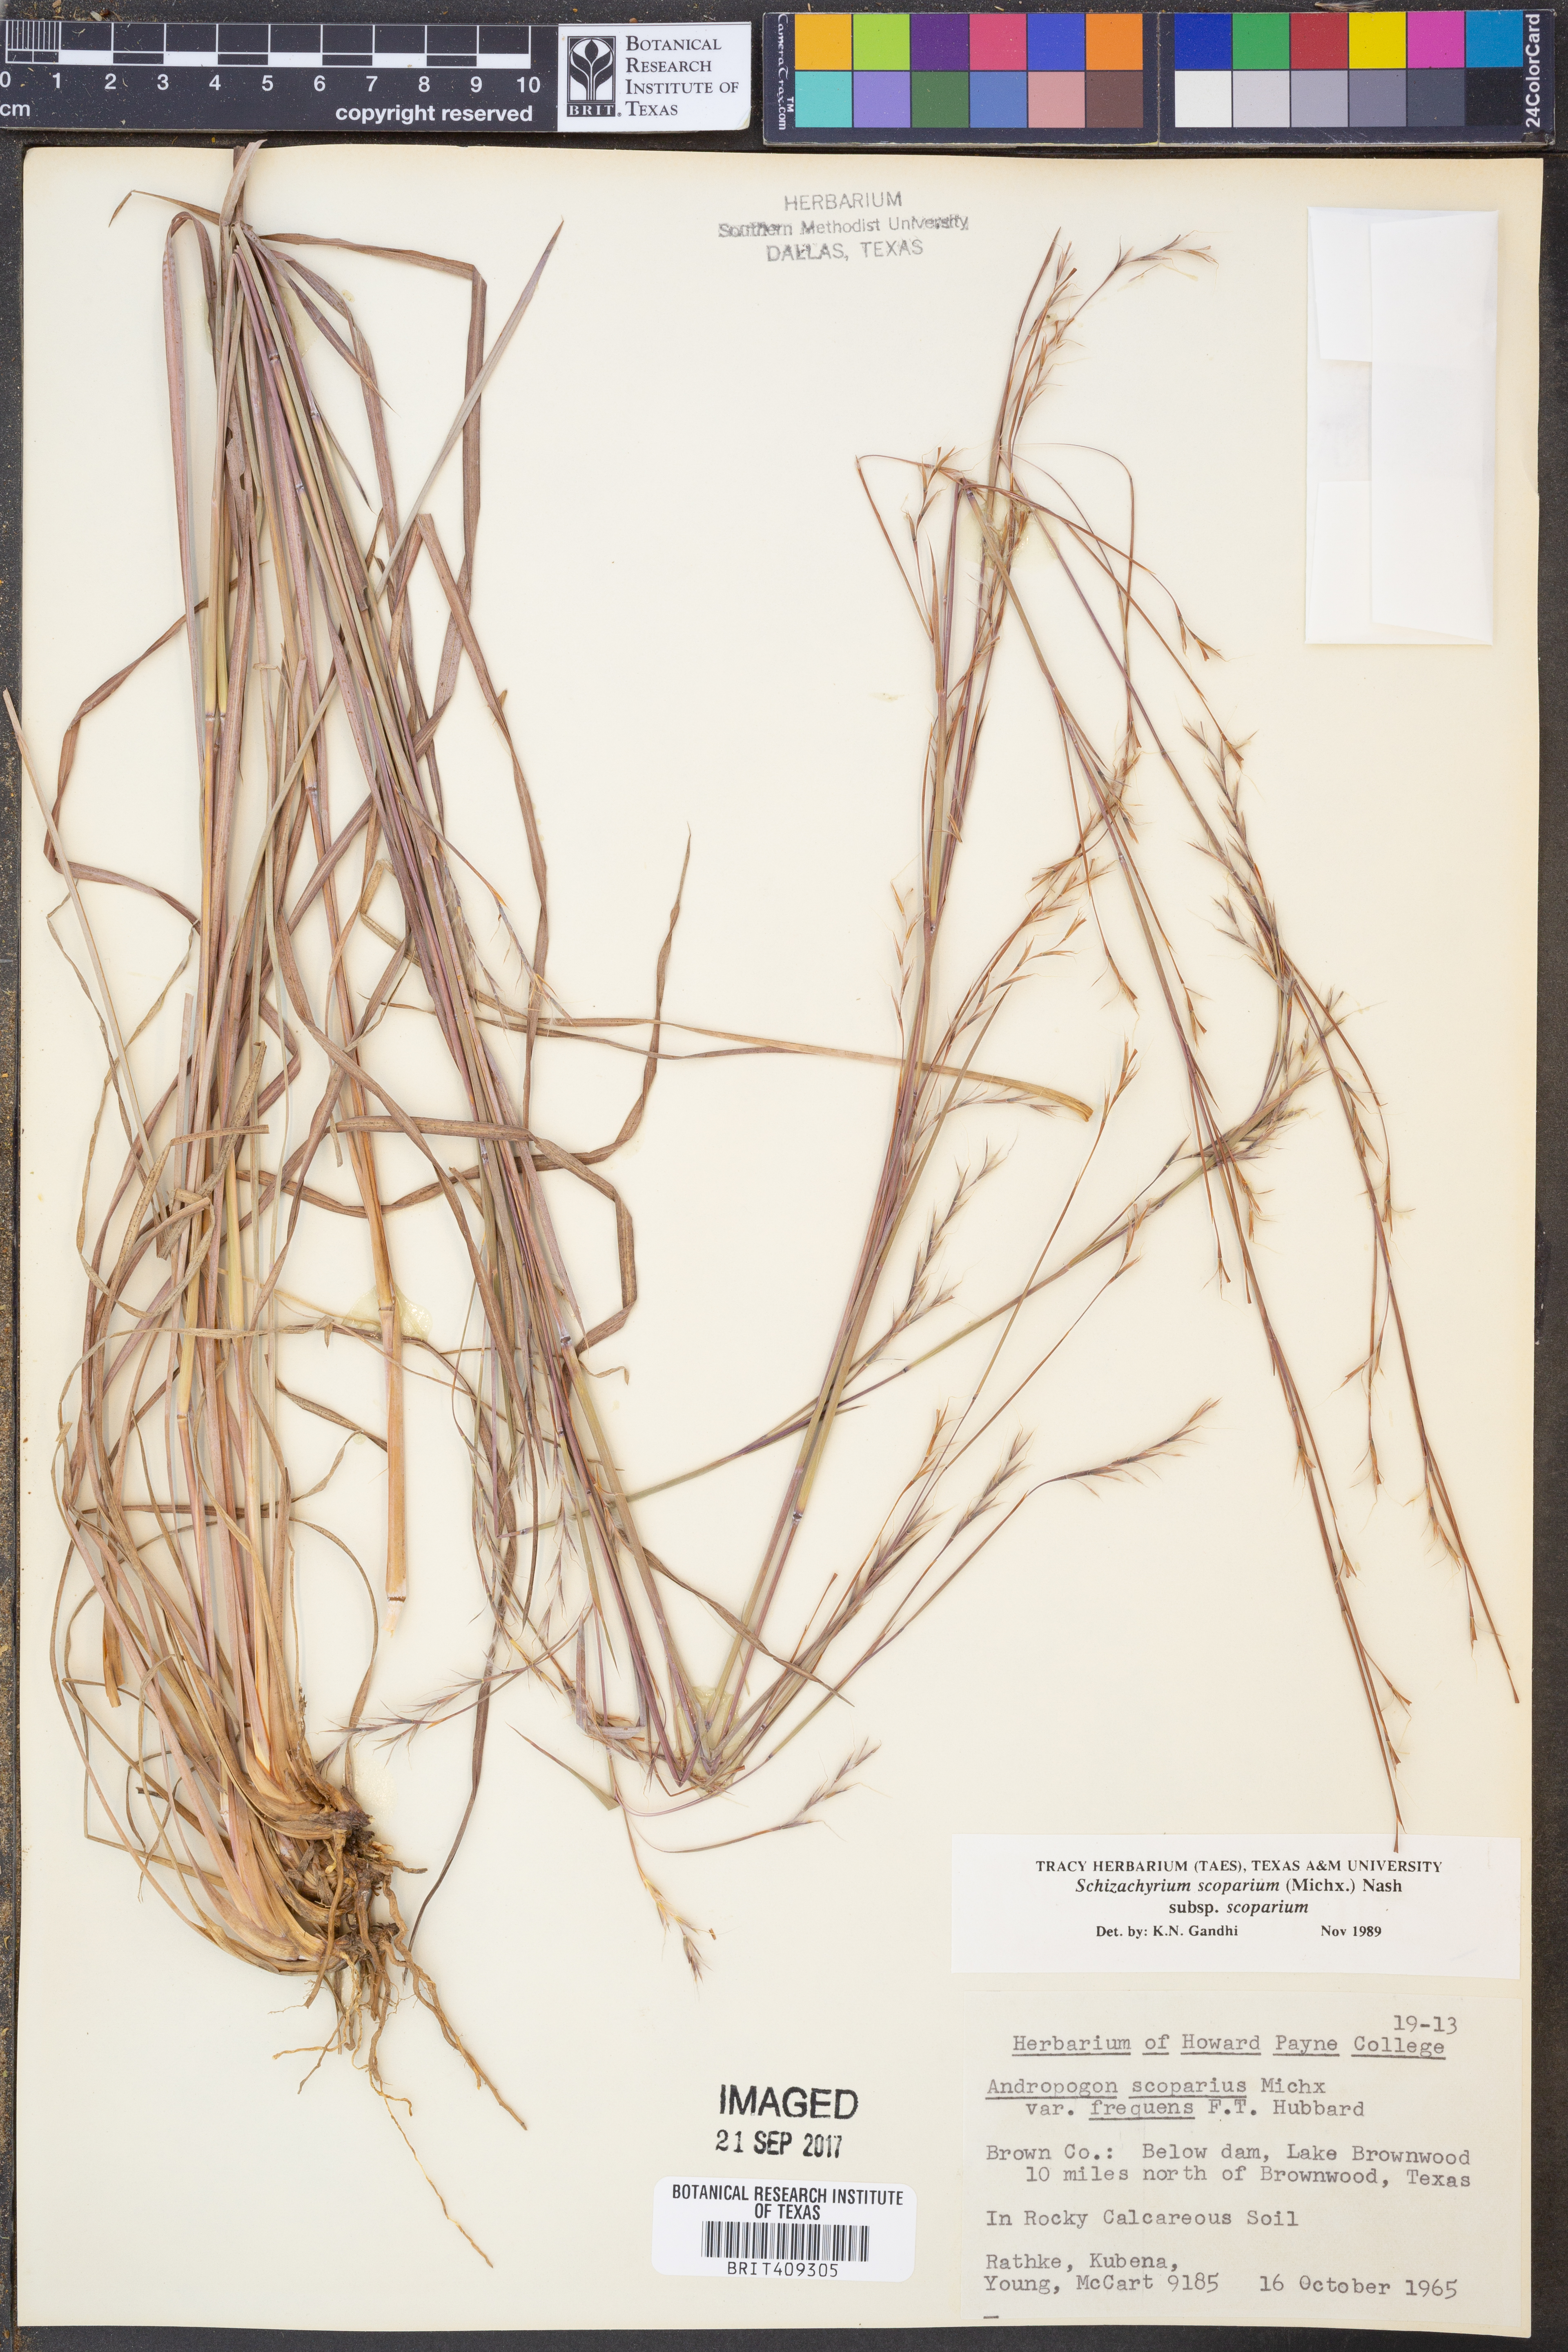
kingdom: Plantae
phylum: Tracheophyta
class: Liliopsida
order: Poales
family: Poaceae
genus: Schizachyrium
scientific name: Schizachyrium scoparium
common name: Little bluestem
